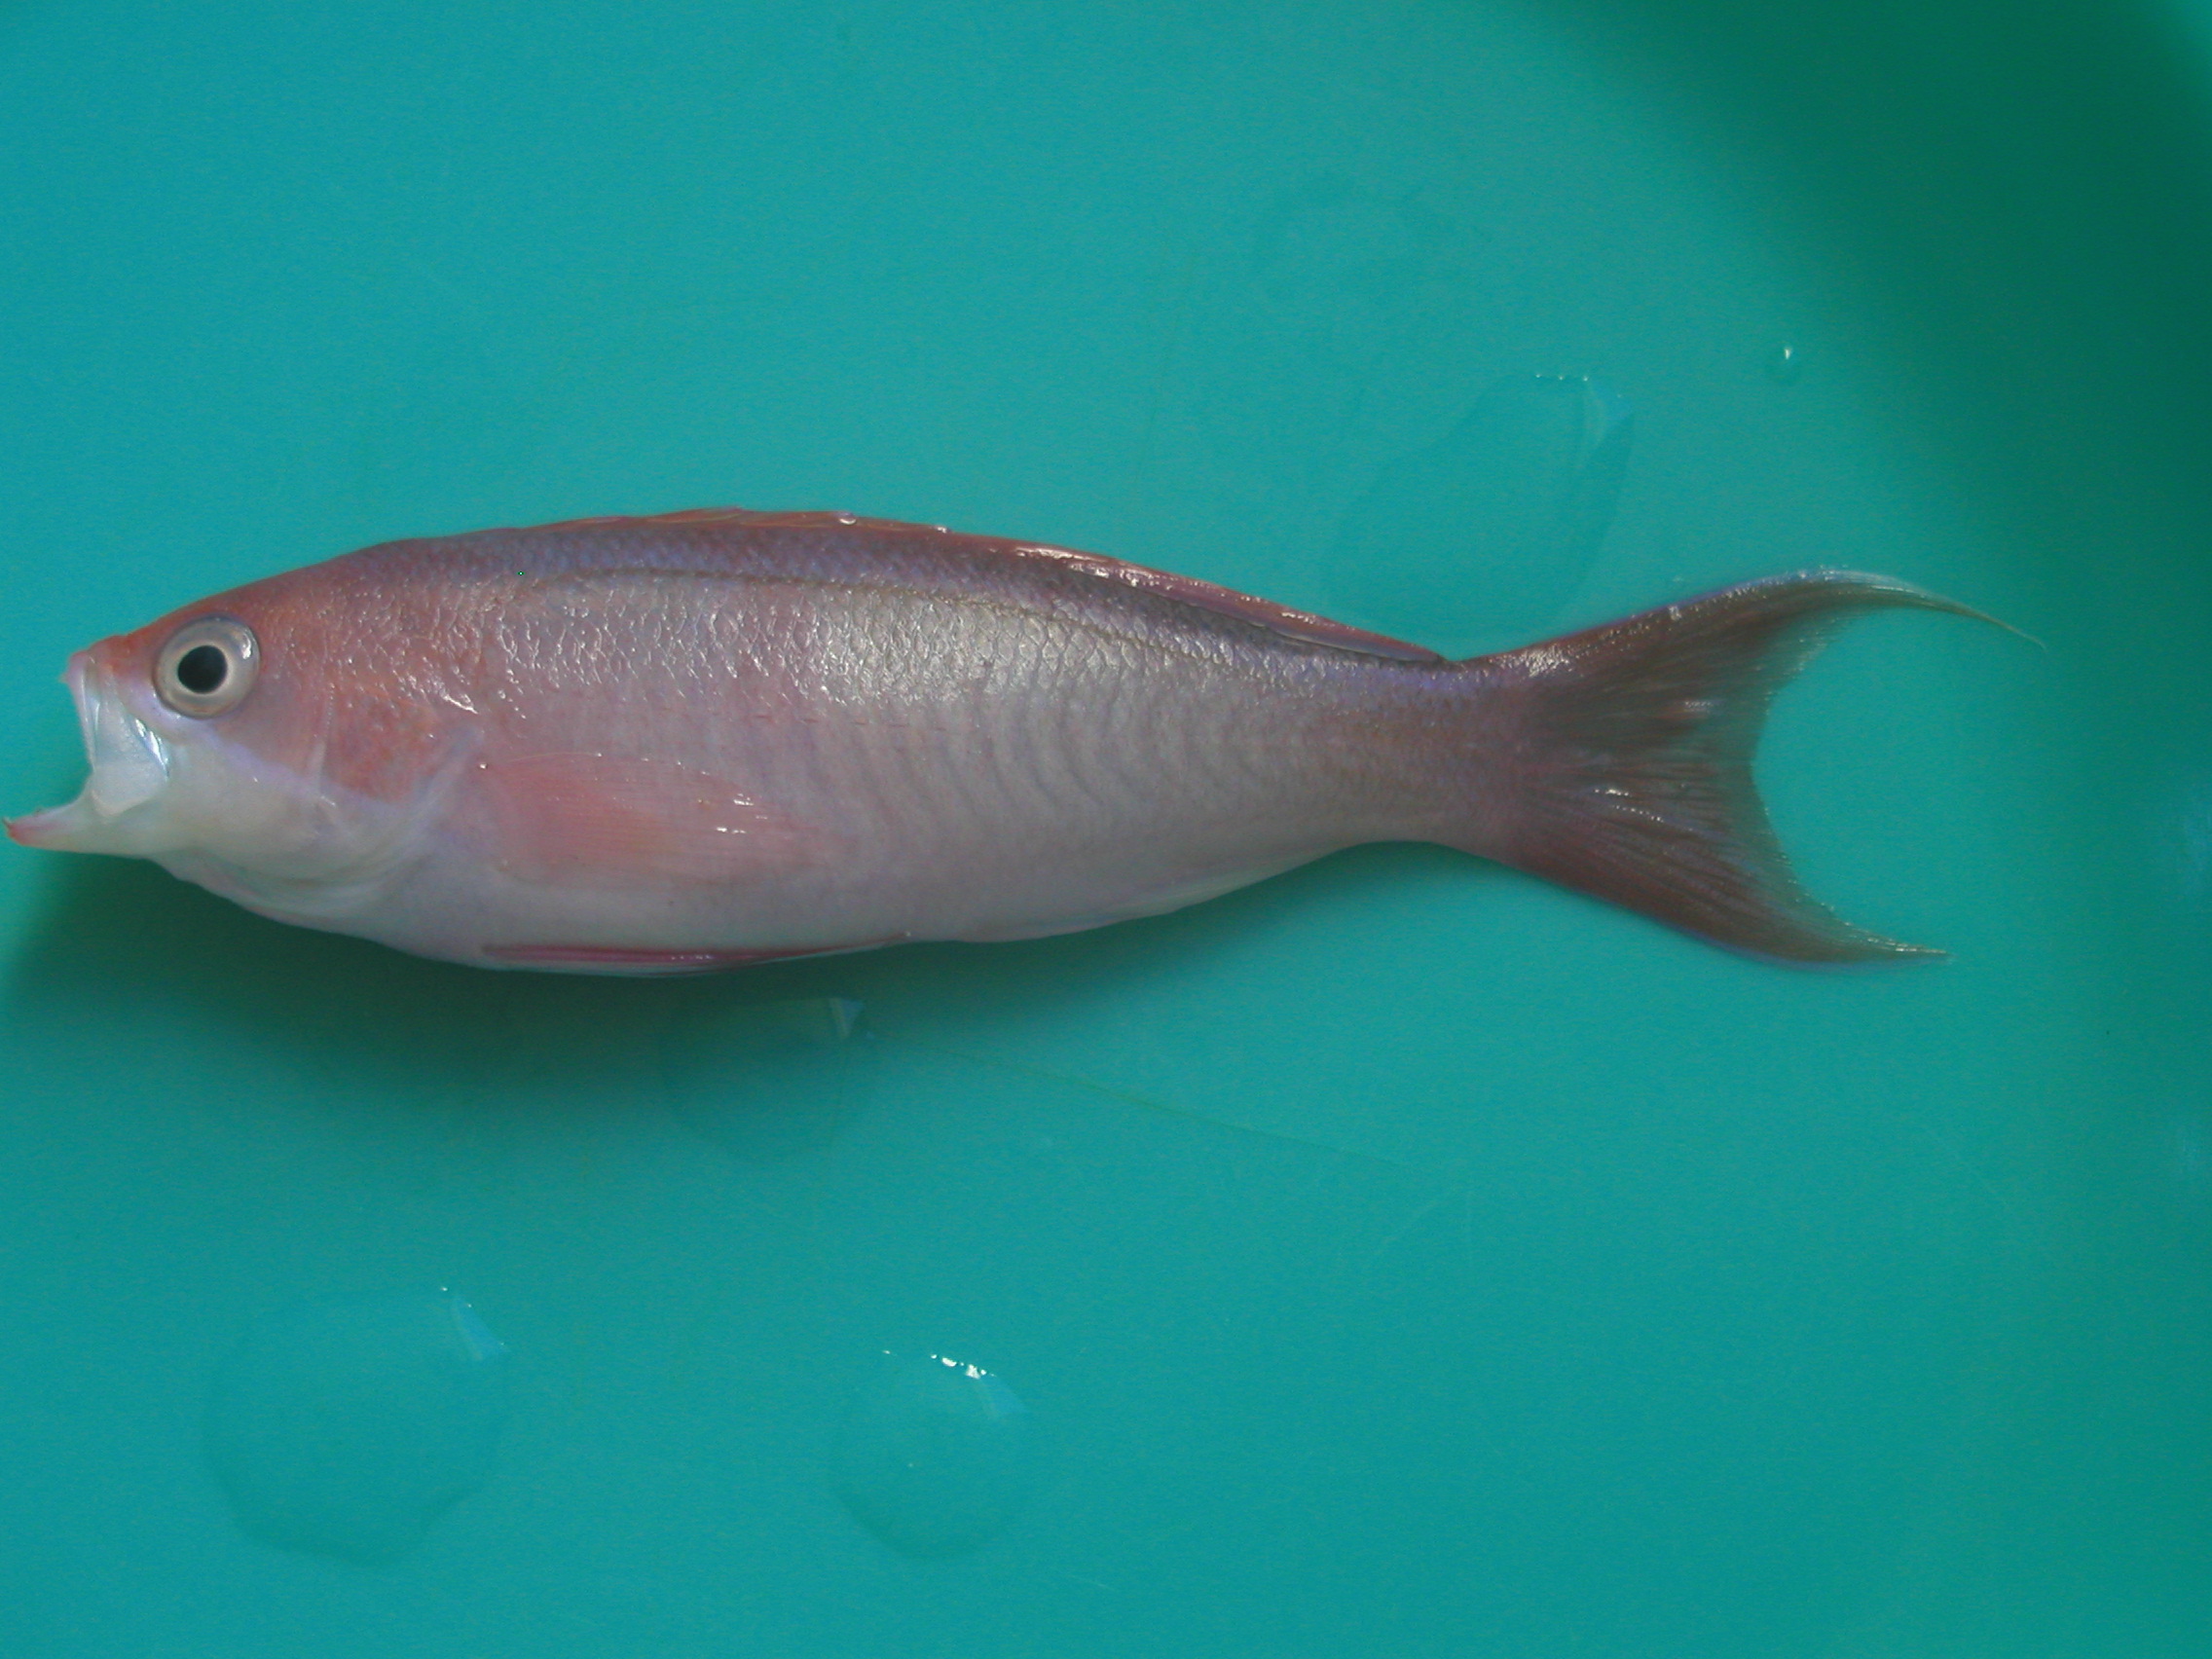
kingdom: Animalia
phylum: Chordata
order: Perciformes
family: Serranidae
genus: Pseudanthias
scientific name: Pseudanthias cooperi
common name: Red basslet
